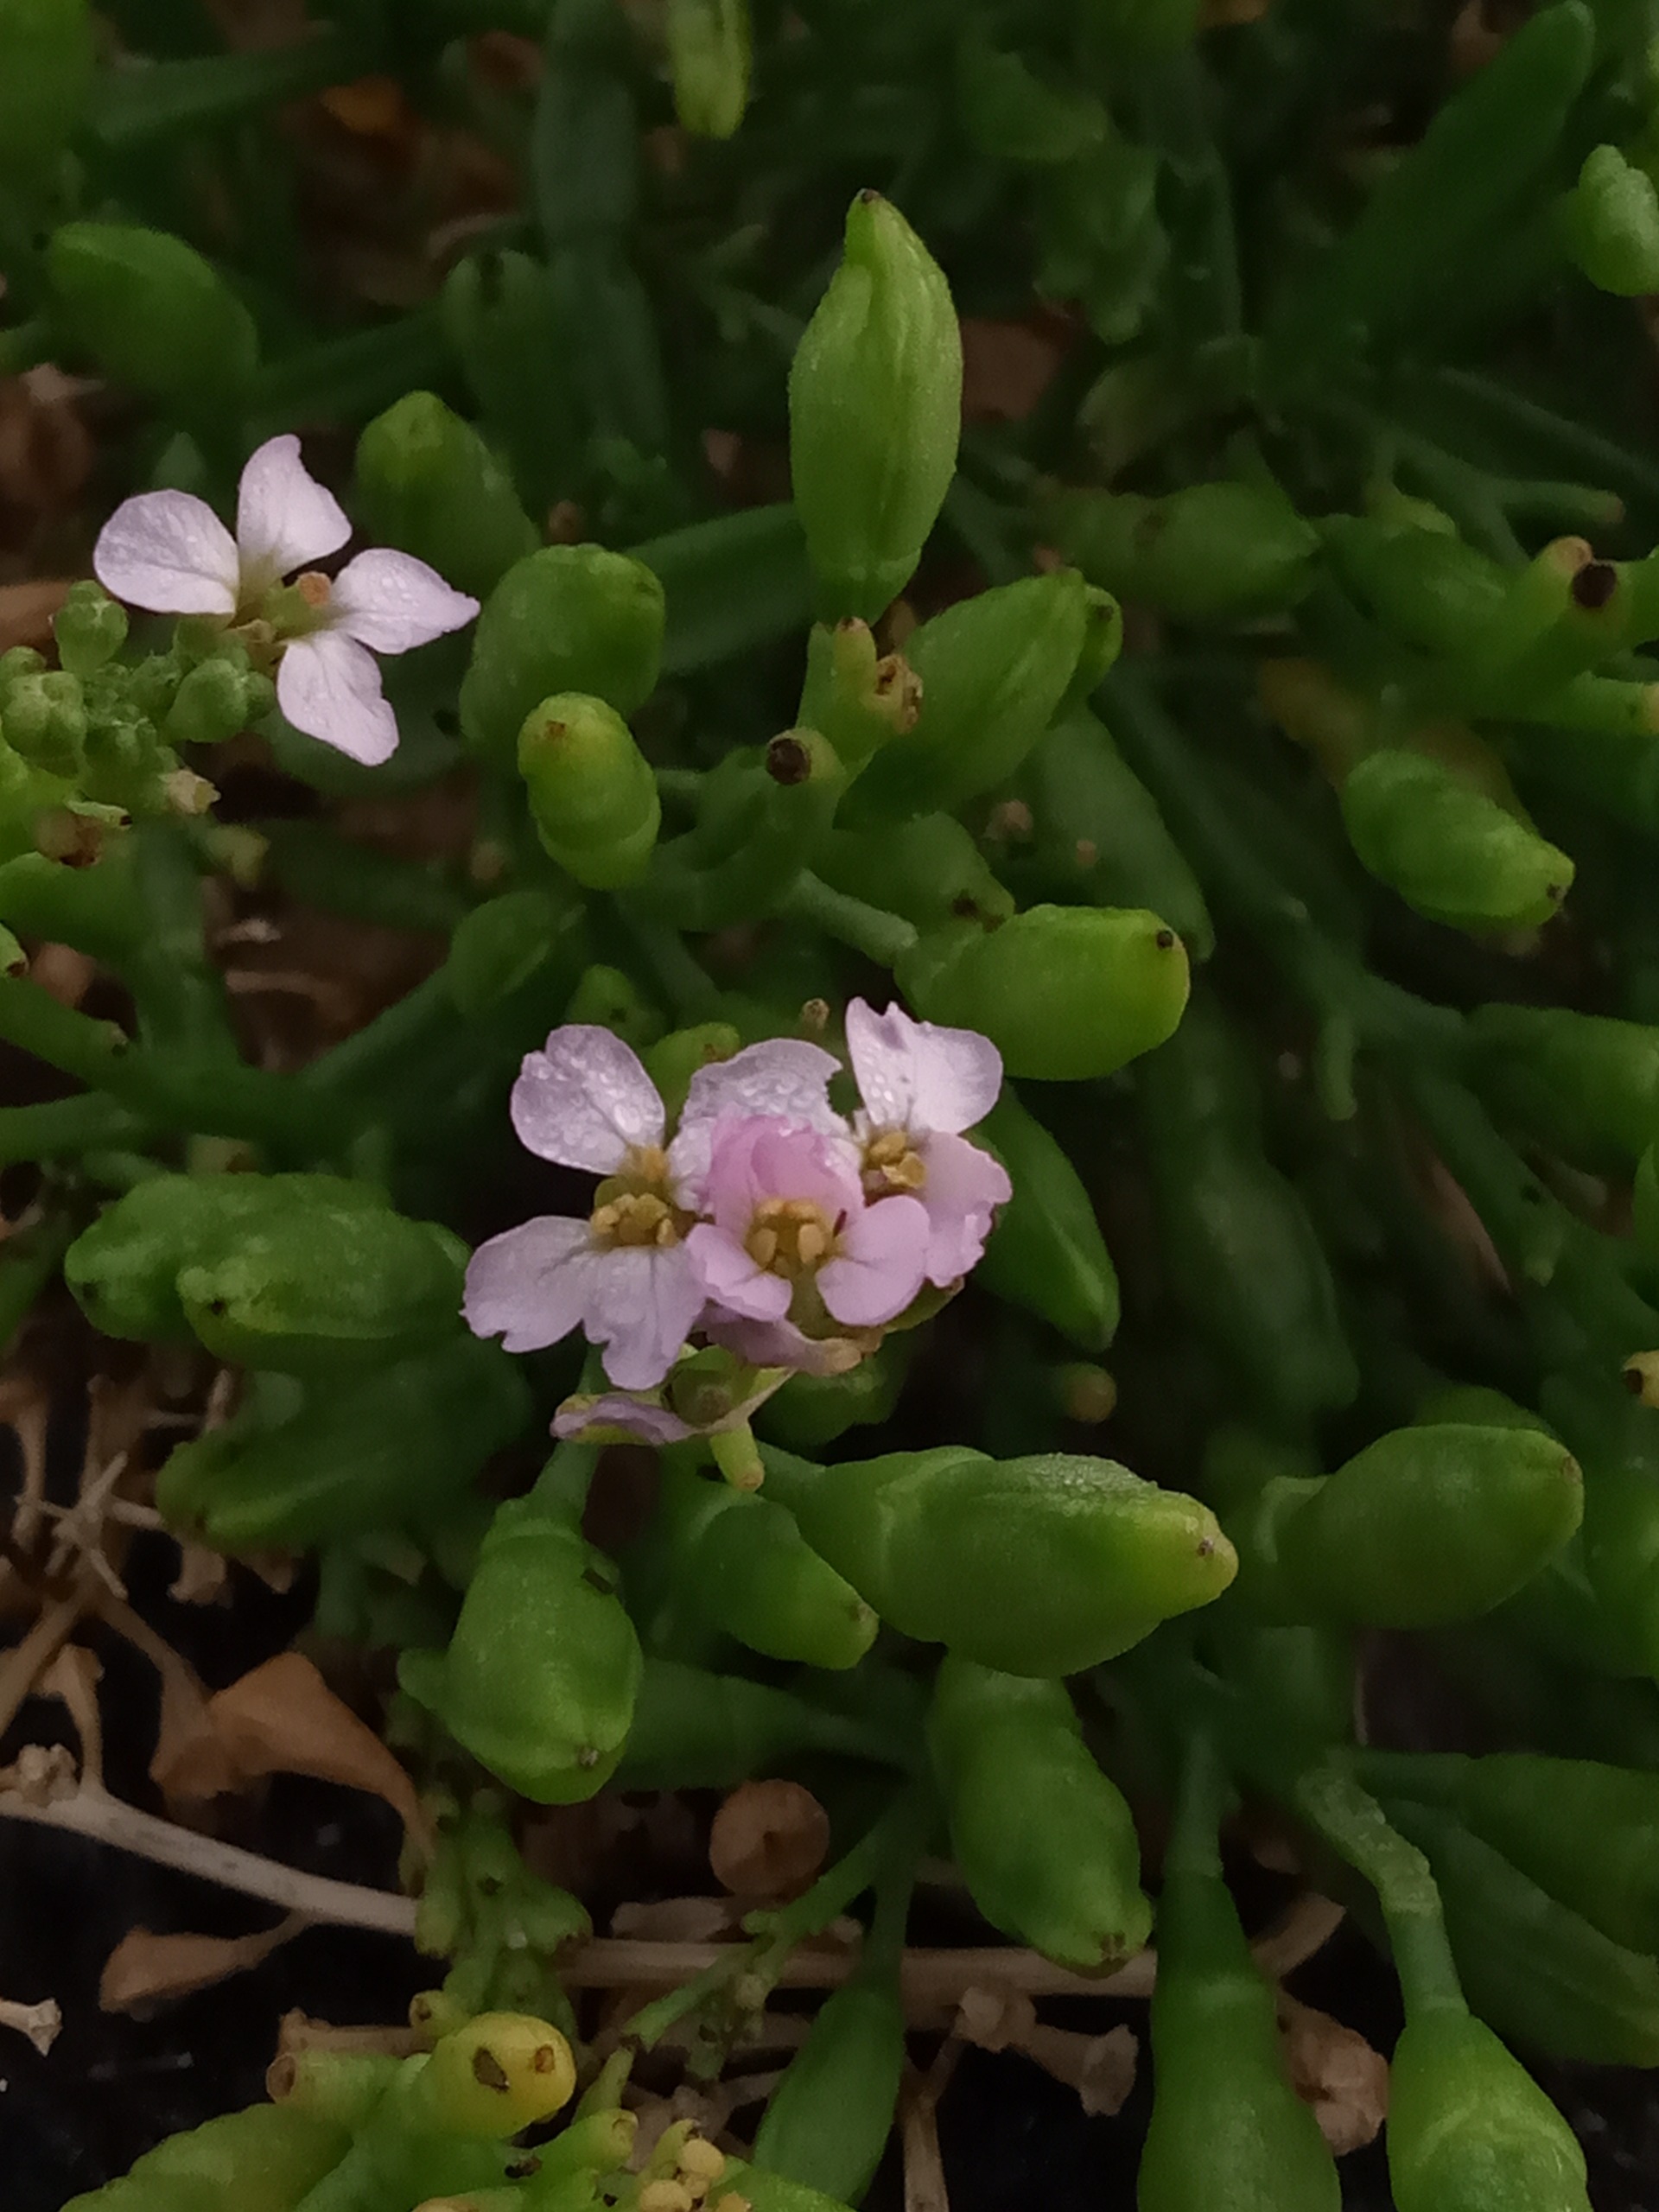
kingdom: Plantae
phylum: Tracheophyta
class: Magnoliopsida
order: Brassicales
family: Brassicaceae
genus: Cakile
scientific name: Cakile maritima
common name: Vesterhavs-strandsennep
